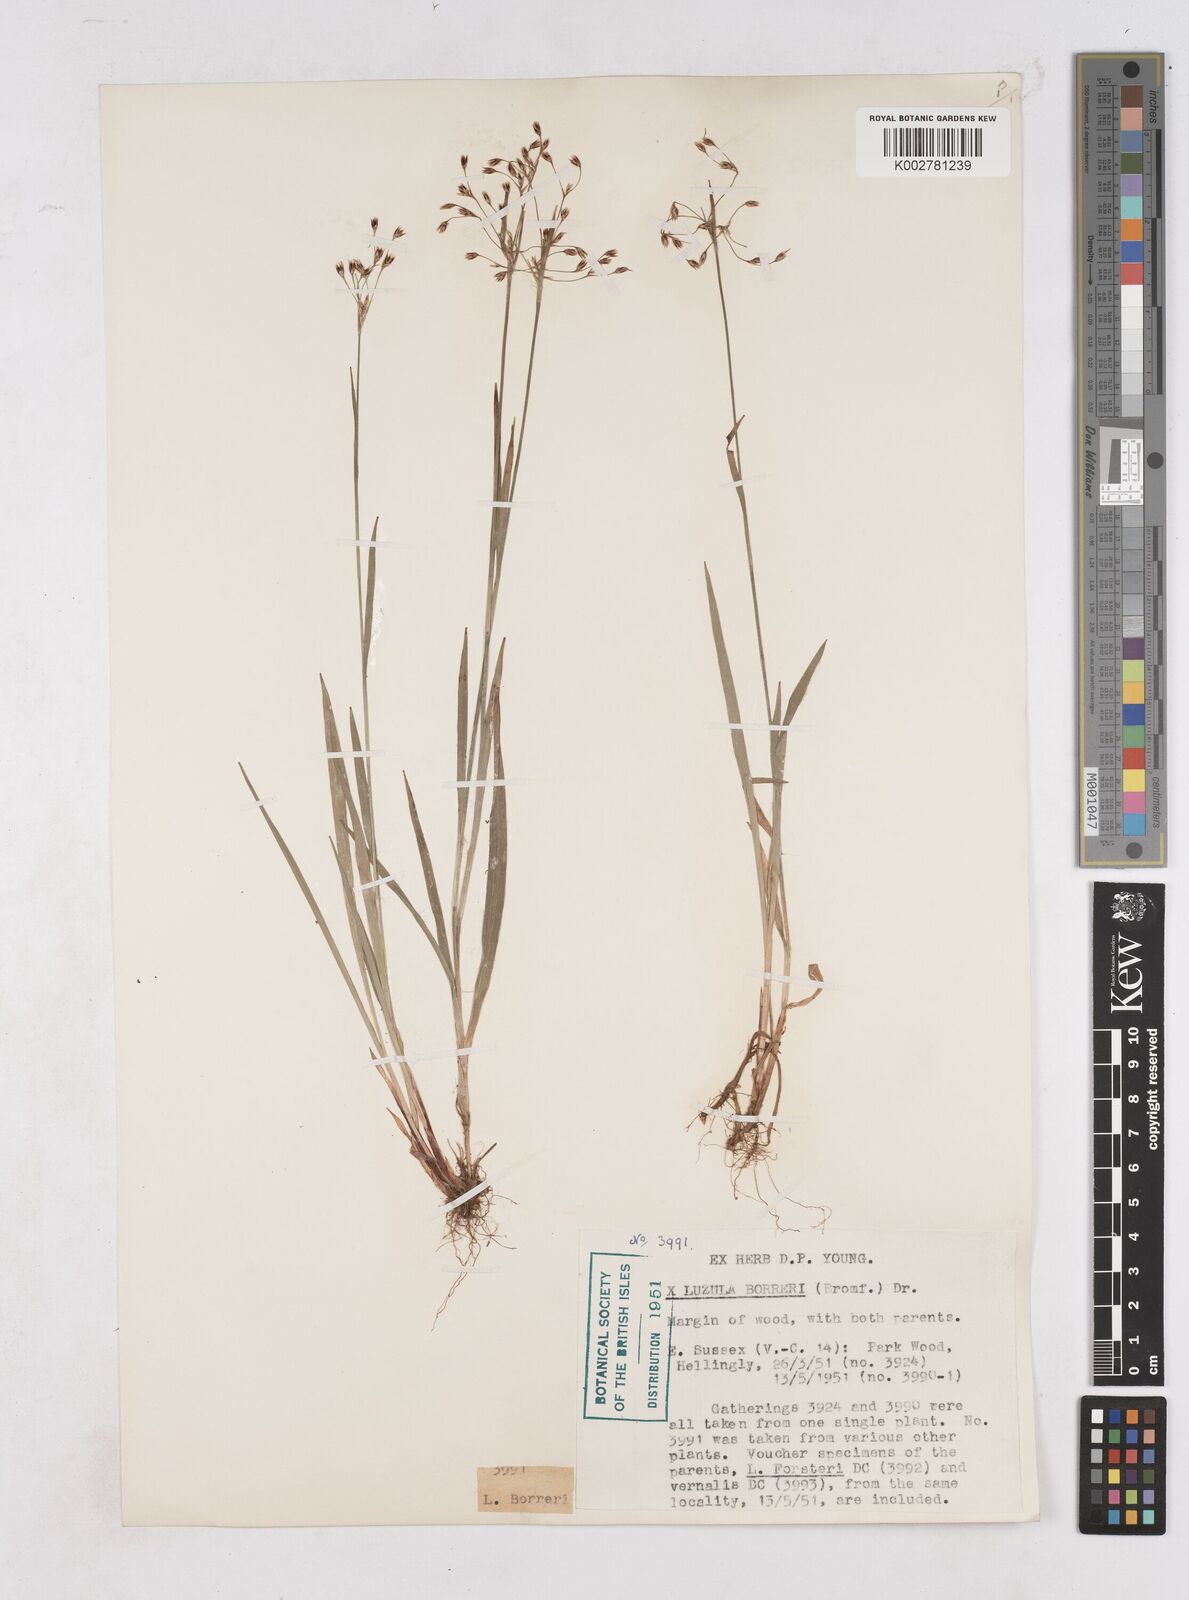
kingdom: Plantae
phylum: Tracheophyta
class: Liliopsida
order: Poales
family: Juncaceae
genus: Luzula
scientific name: Luzula forsteri
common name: Southern wood-rush
